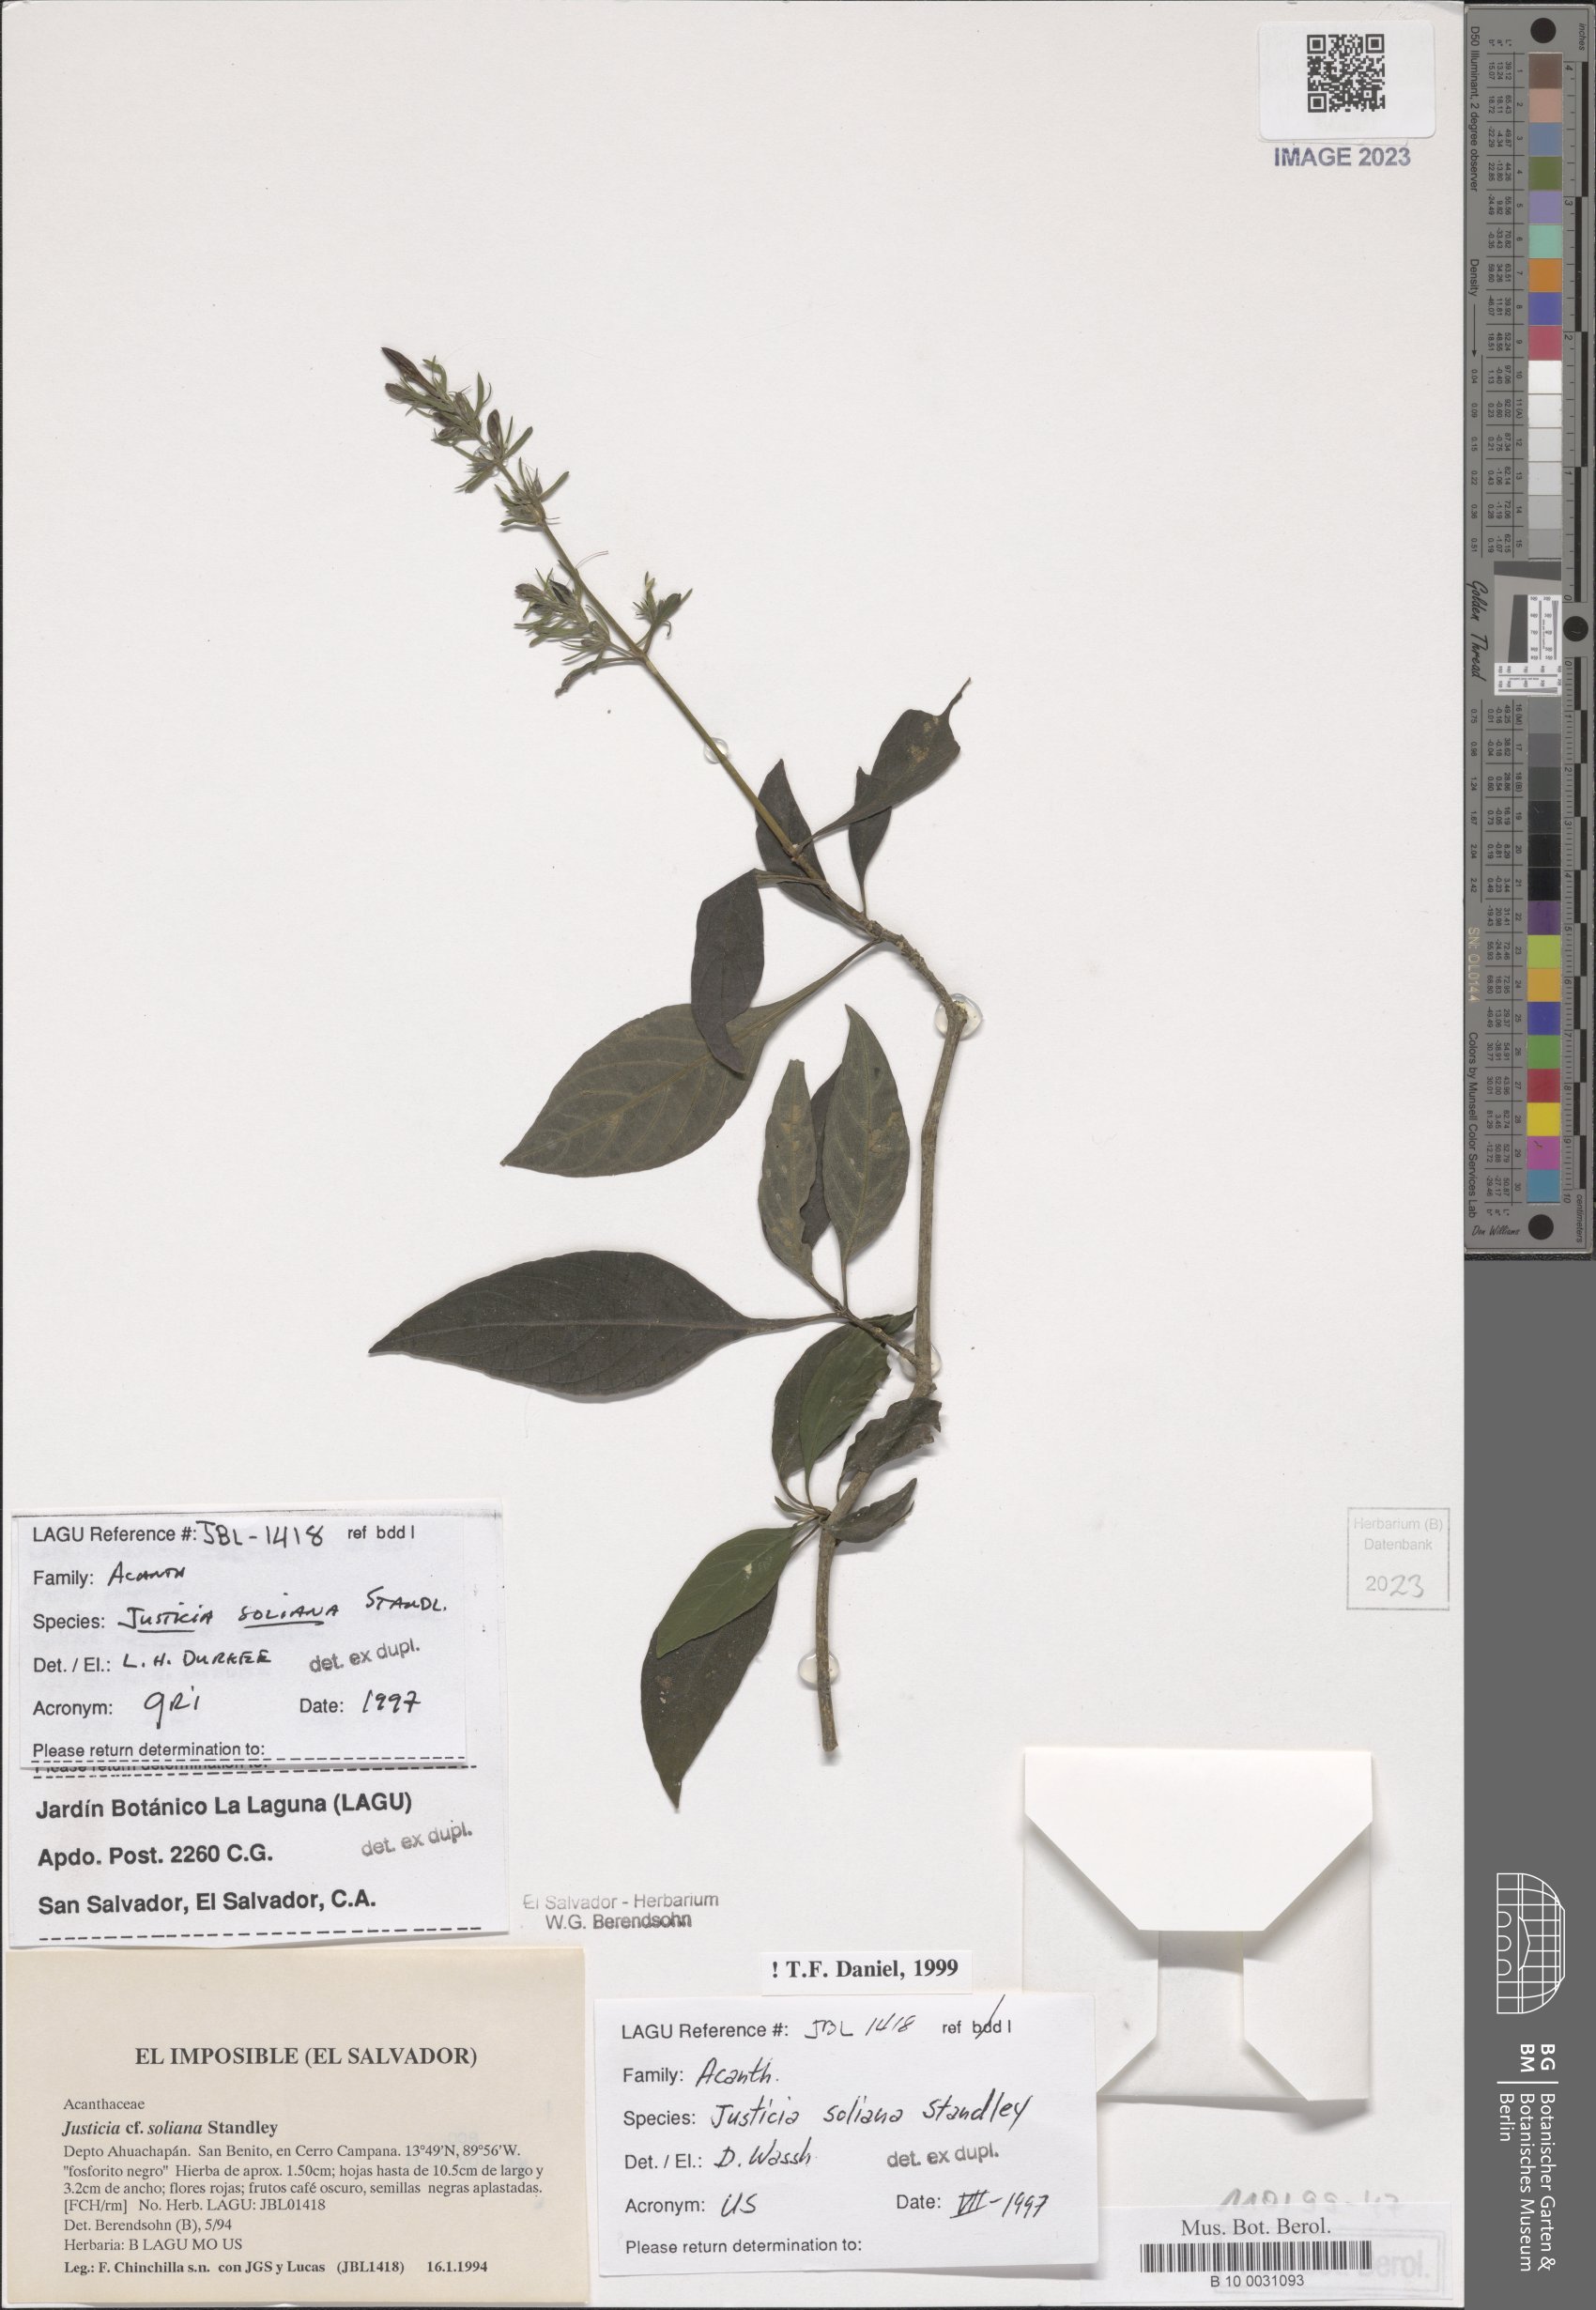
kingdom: Plantae
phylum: Tracheophyta
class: Magnoliopsida
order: Lamiales
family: Acanthaceae
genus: Justicia
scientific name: Justicia soliana
